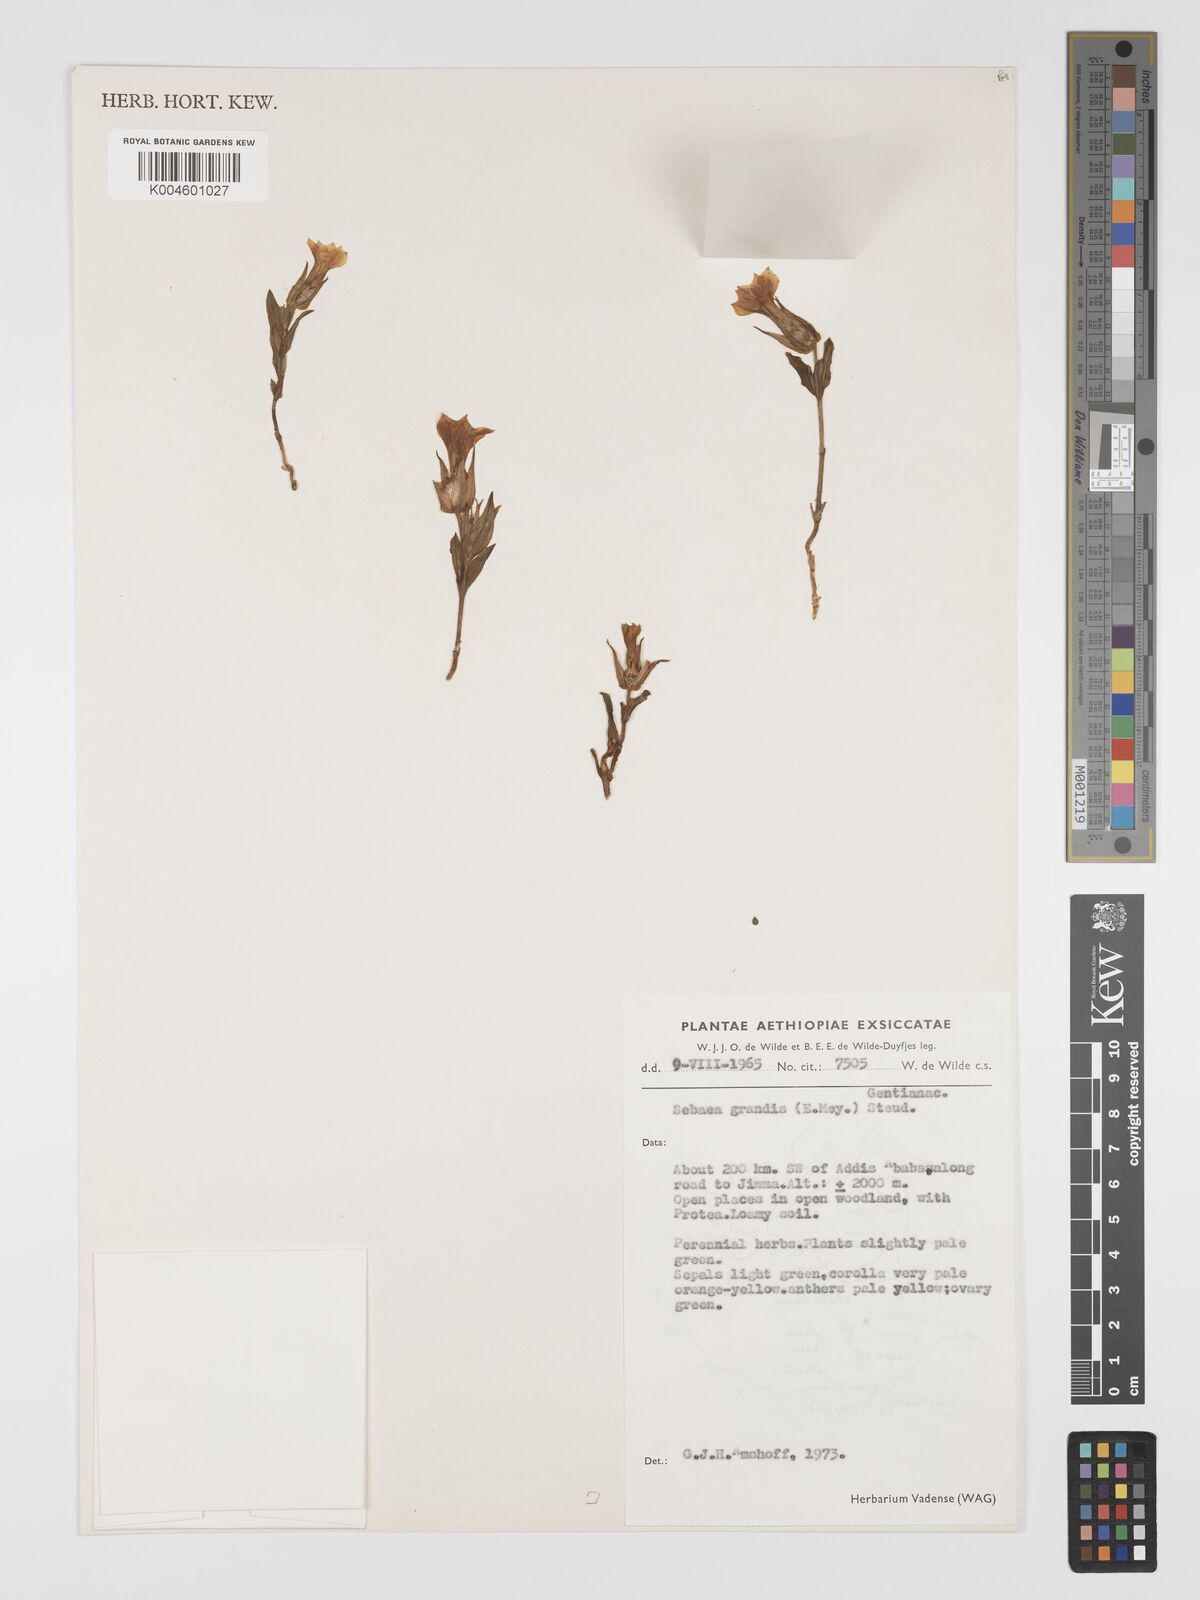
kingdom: Plantae
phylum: Tracheophyta
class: Magnoliopsida
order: Gentianales
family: Gentianaceae
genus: Exochaenium
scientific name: Exochaenium grande
